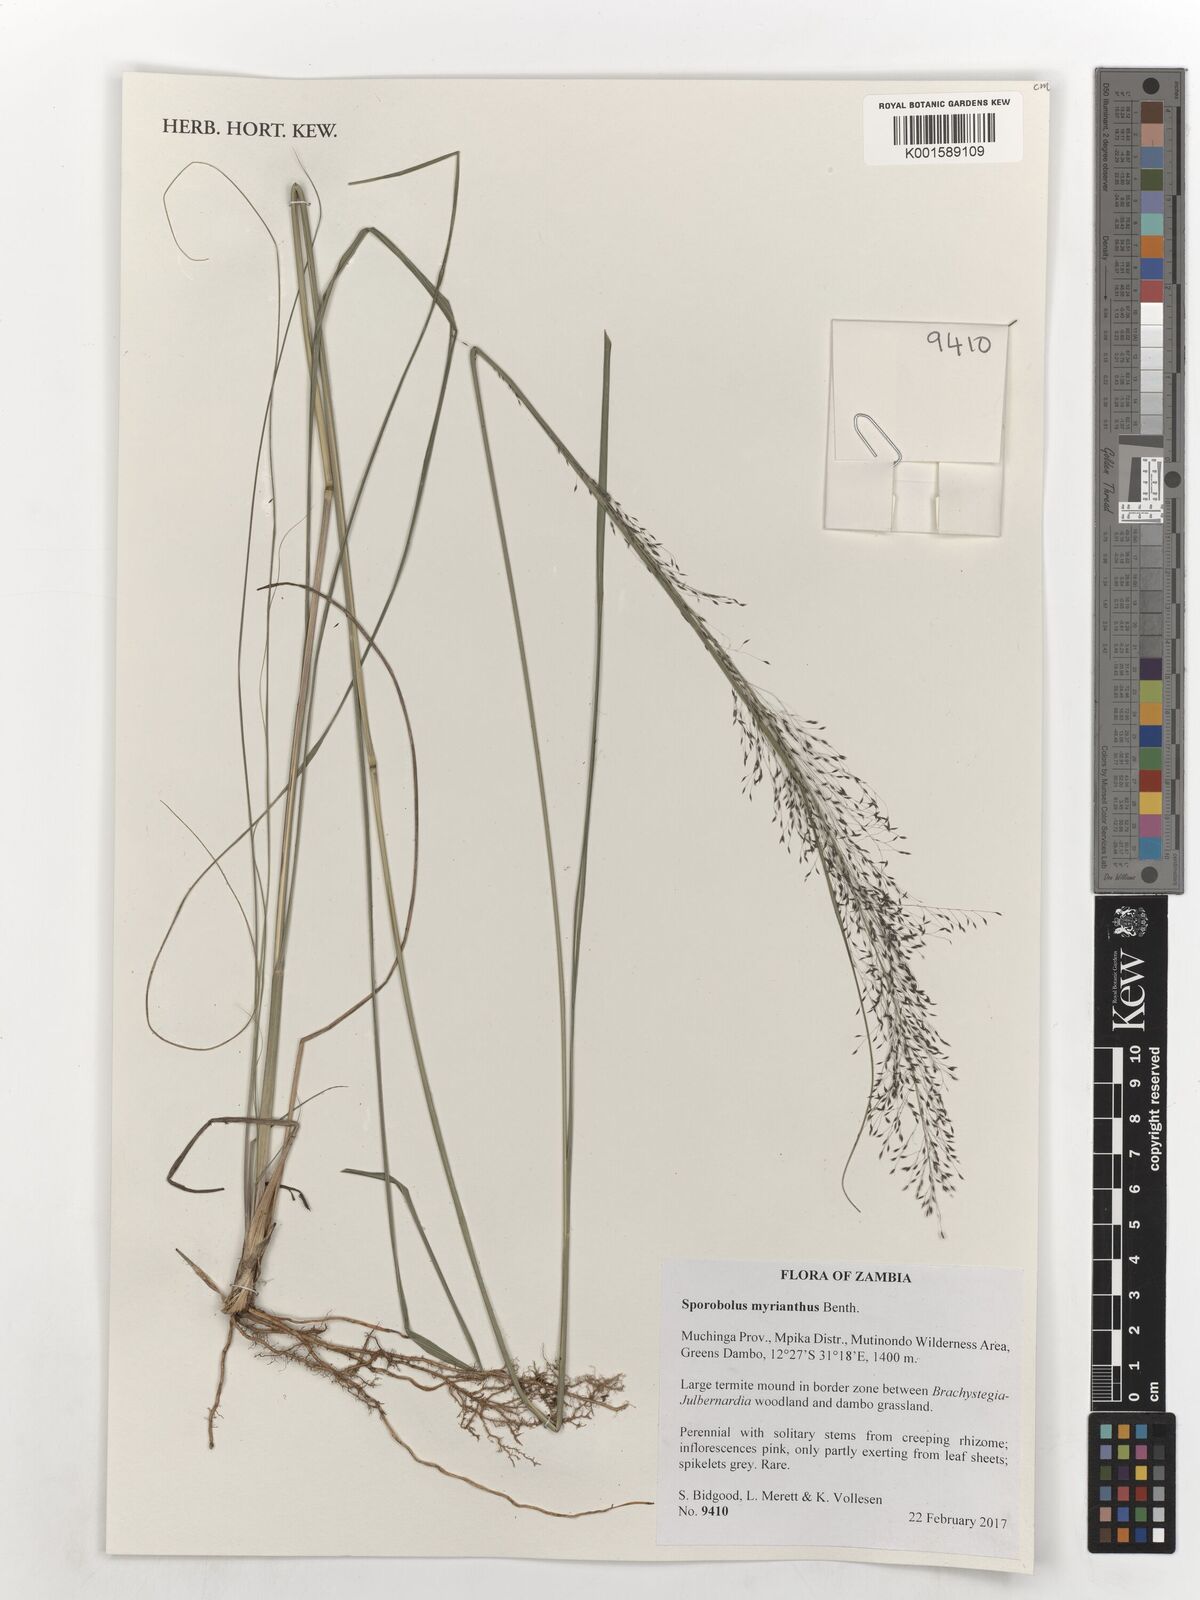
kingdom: Plantae
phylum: Tracheophyta
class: Liliopsida
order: Poales
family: Poaceae
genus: Sporobolus
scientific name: Sporobolus myrianthus
